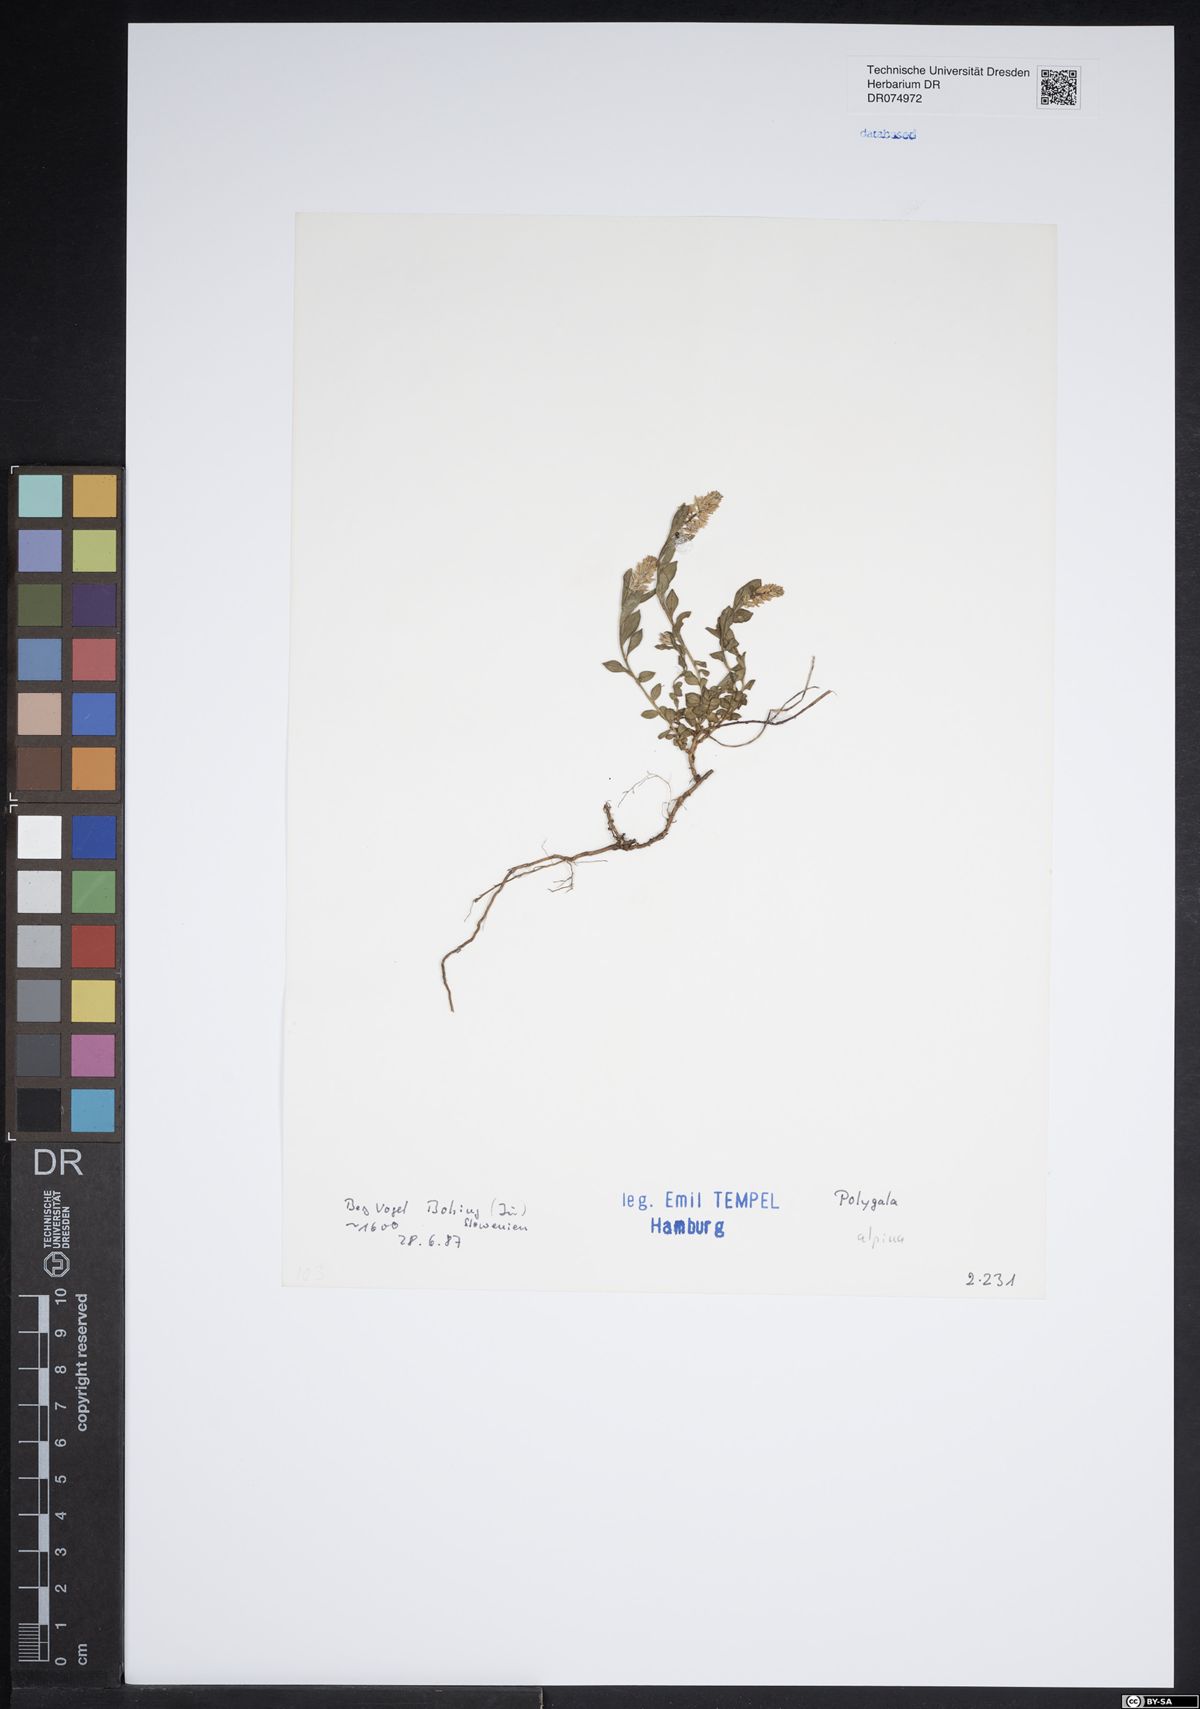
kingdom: Plantae
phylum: Tracheophyta
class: Magnoliopsida
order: Fabales
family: Polygalaceae
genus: Polygala
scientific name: Polygala alpina
